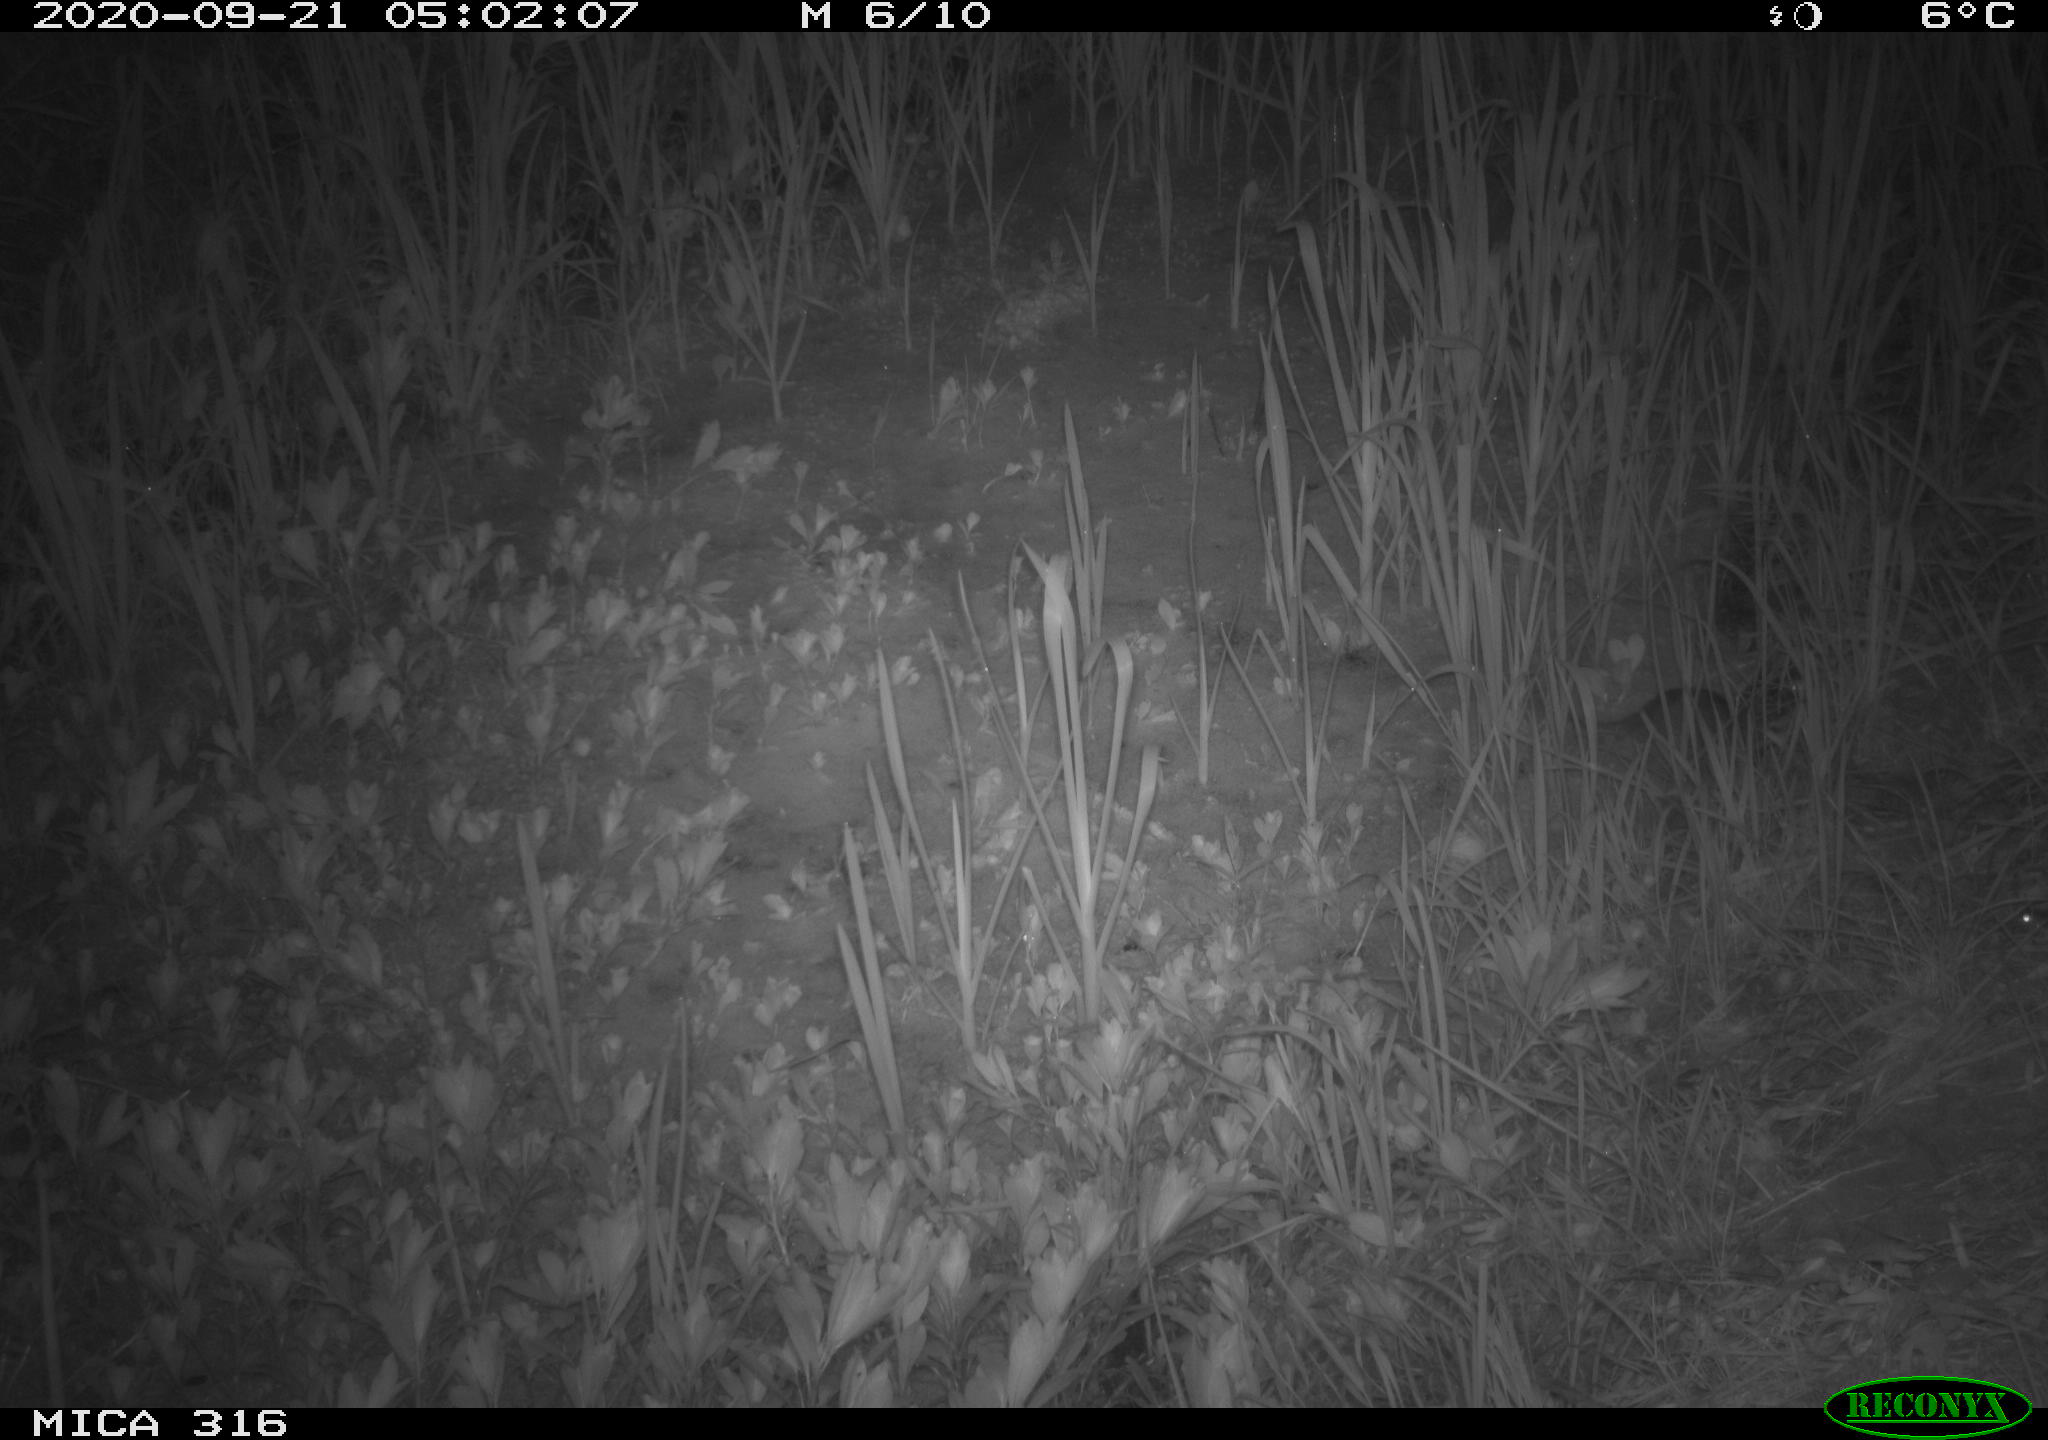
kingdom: Animalia
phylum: Chordata
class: Mammalia
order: Rodentia
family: Muridae
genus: Rattus
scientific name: Rattus norvegicus
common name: Brown rat
